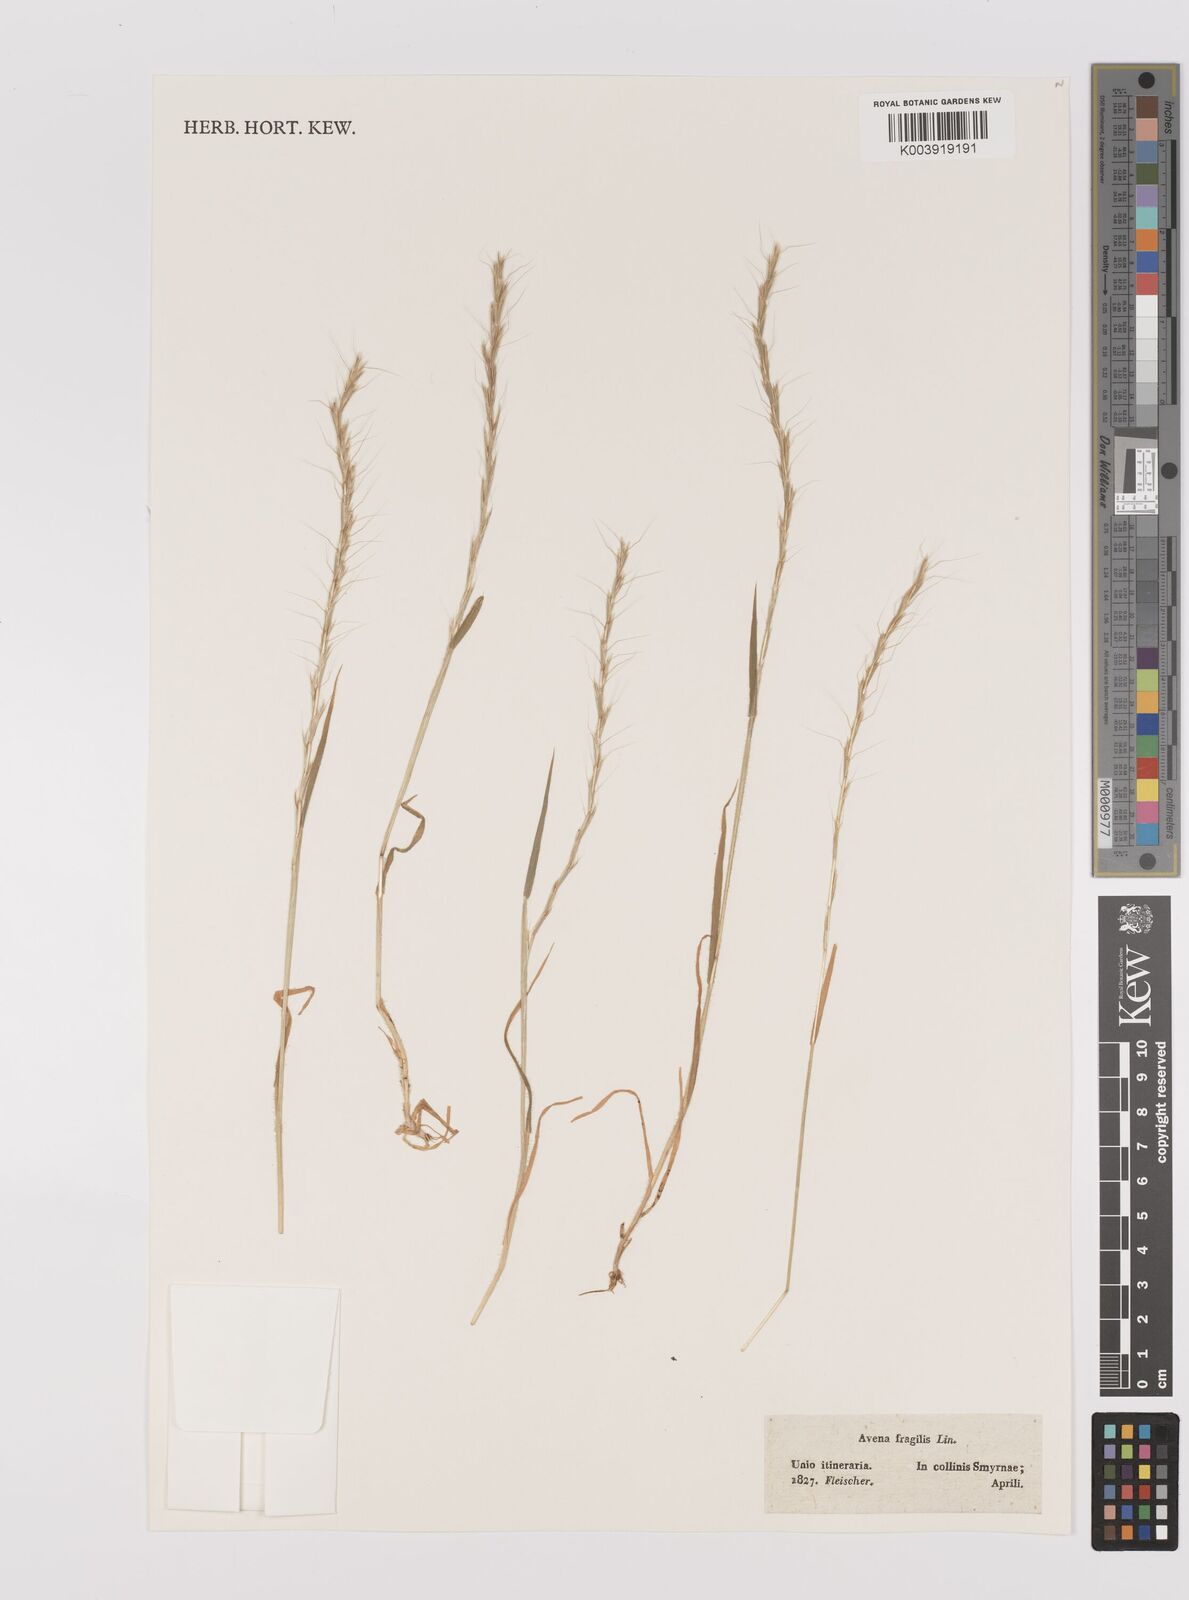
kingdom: Plantae
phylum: Tracheophyta
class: Liliopsida
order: Poales
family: Poaceae
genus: Gaudinia
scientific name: Gaudinia fragilis
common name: French oat-grass
